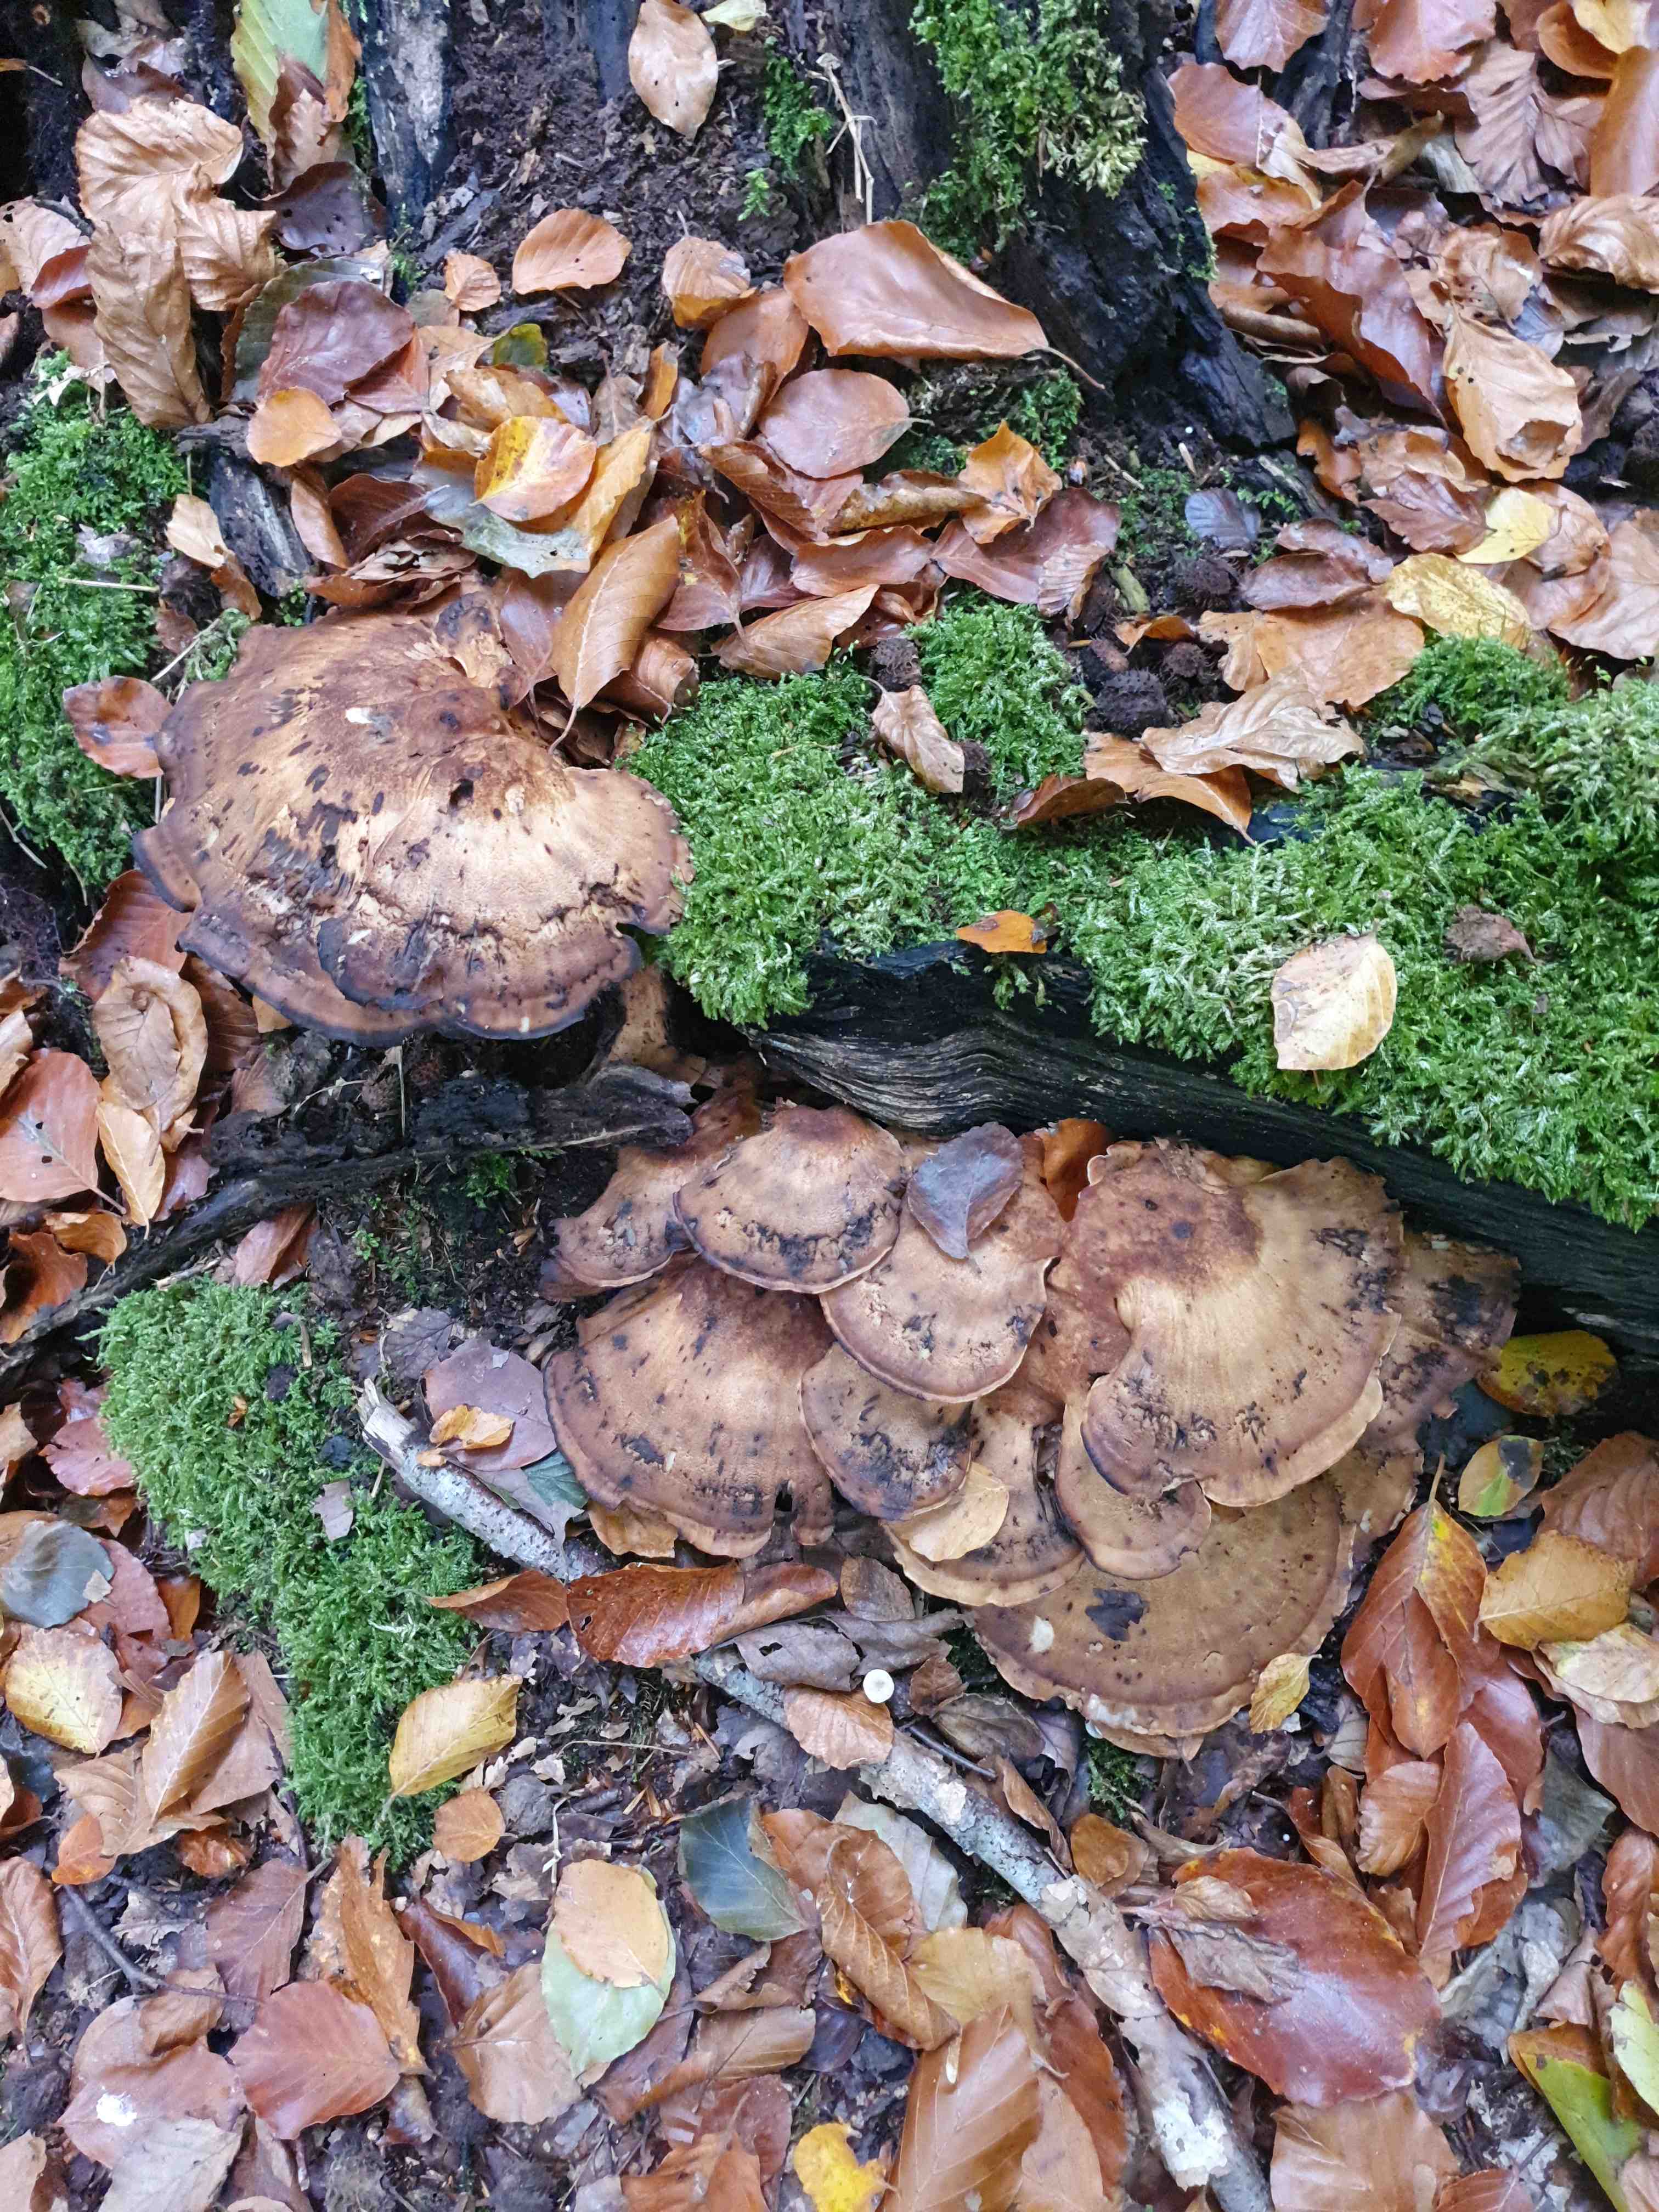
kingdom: Fungi
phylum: Basidiomycota
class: Agaricomycetes
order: Polyporales
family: Meripilaceae
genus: Meripilus
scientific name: Meripilus giganteus
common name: kæmpeporesvamp
